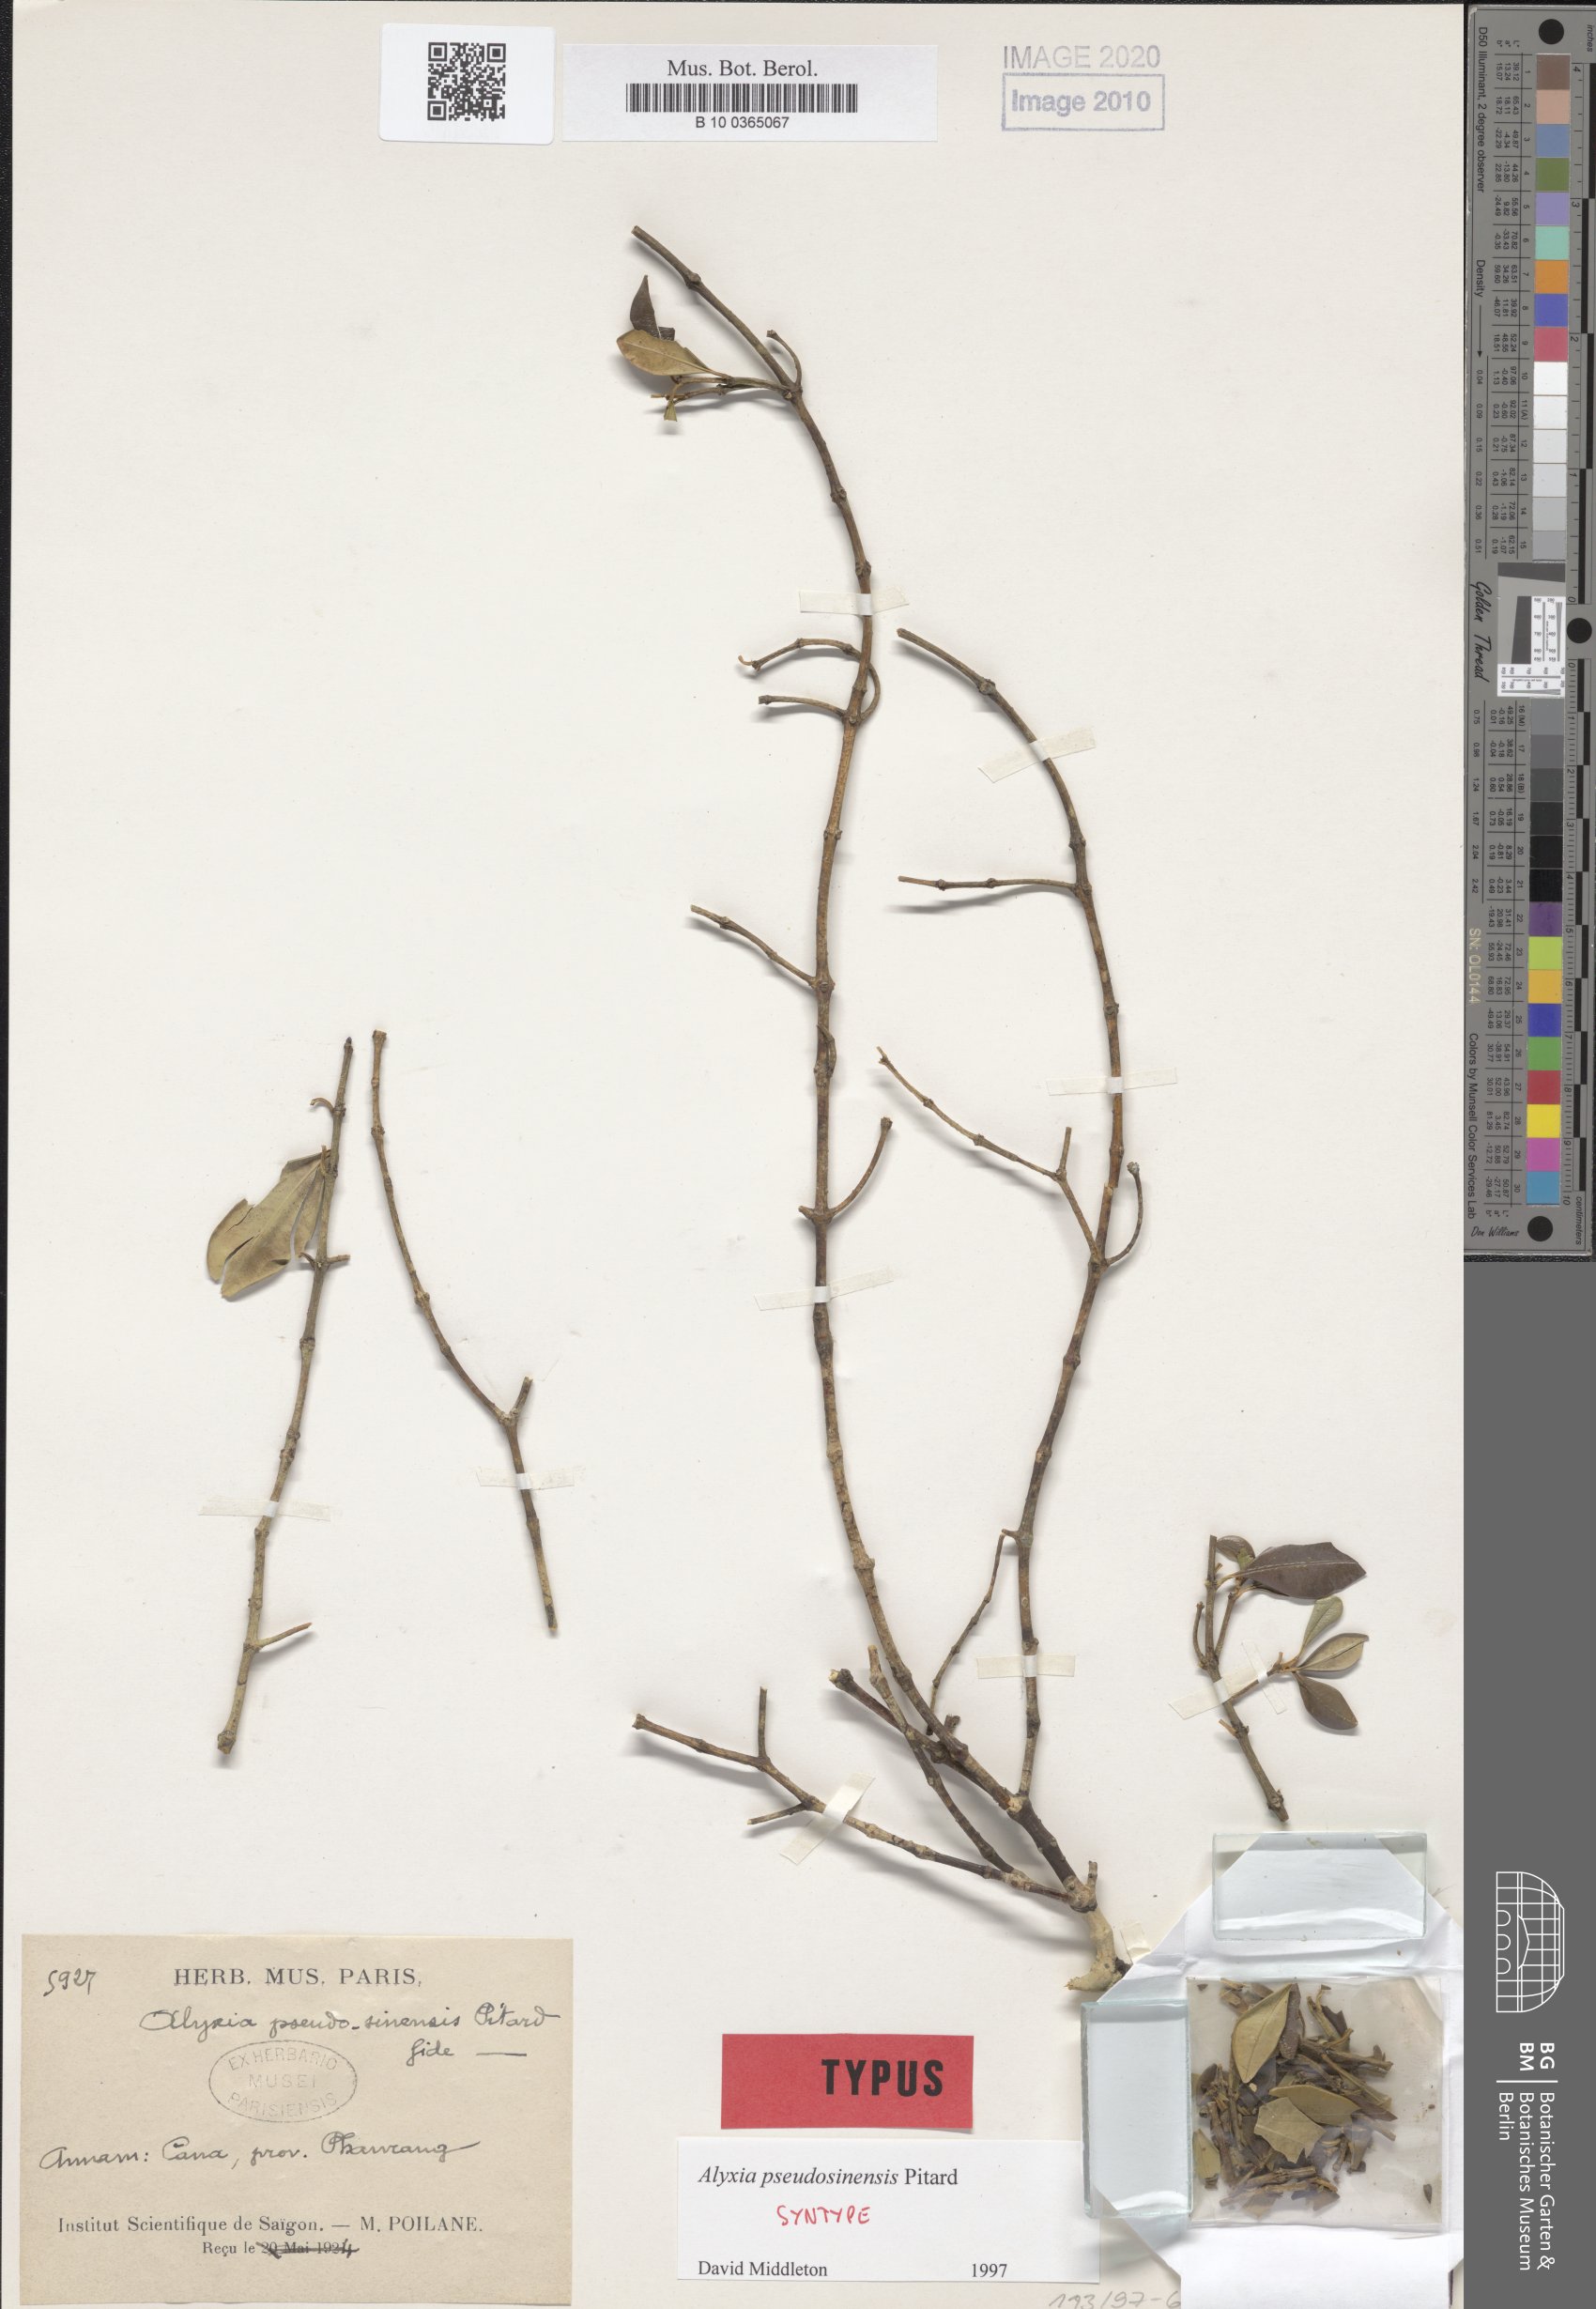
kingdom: Plantae
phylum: Tracheophyta
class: Magnoliopsida
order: Gentianales
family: Apocynaceae
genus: Alyxia
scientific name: Alyxia pseudosinensis
